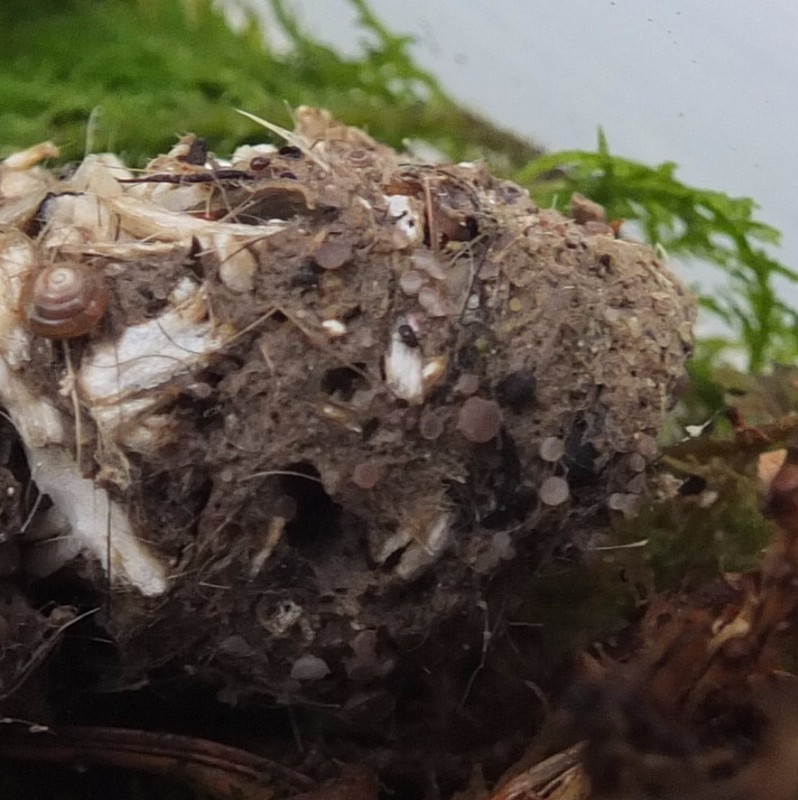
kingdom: Fungi
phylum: Ascomycota
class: Pezizomycetes
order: Pezizales
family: Ascobolaceae
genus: Ascobolus
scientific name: Ascobolus brassicae
